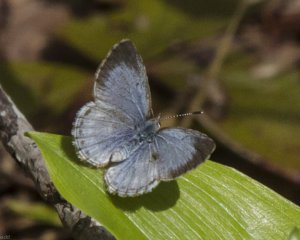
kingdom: Animalia
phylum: Arthropoda
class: Insecta
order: Lepidoptera
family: Lycaenidae
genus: Celastrina
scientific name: Celastrina lucia
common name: Northern Spring Azure
